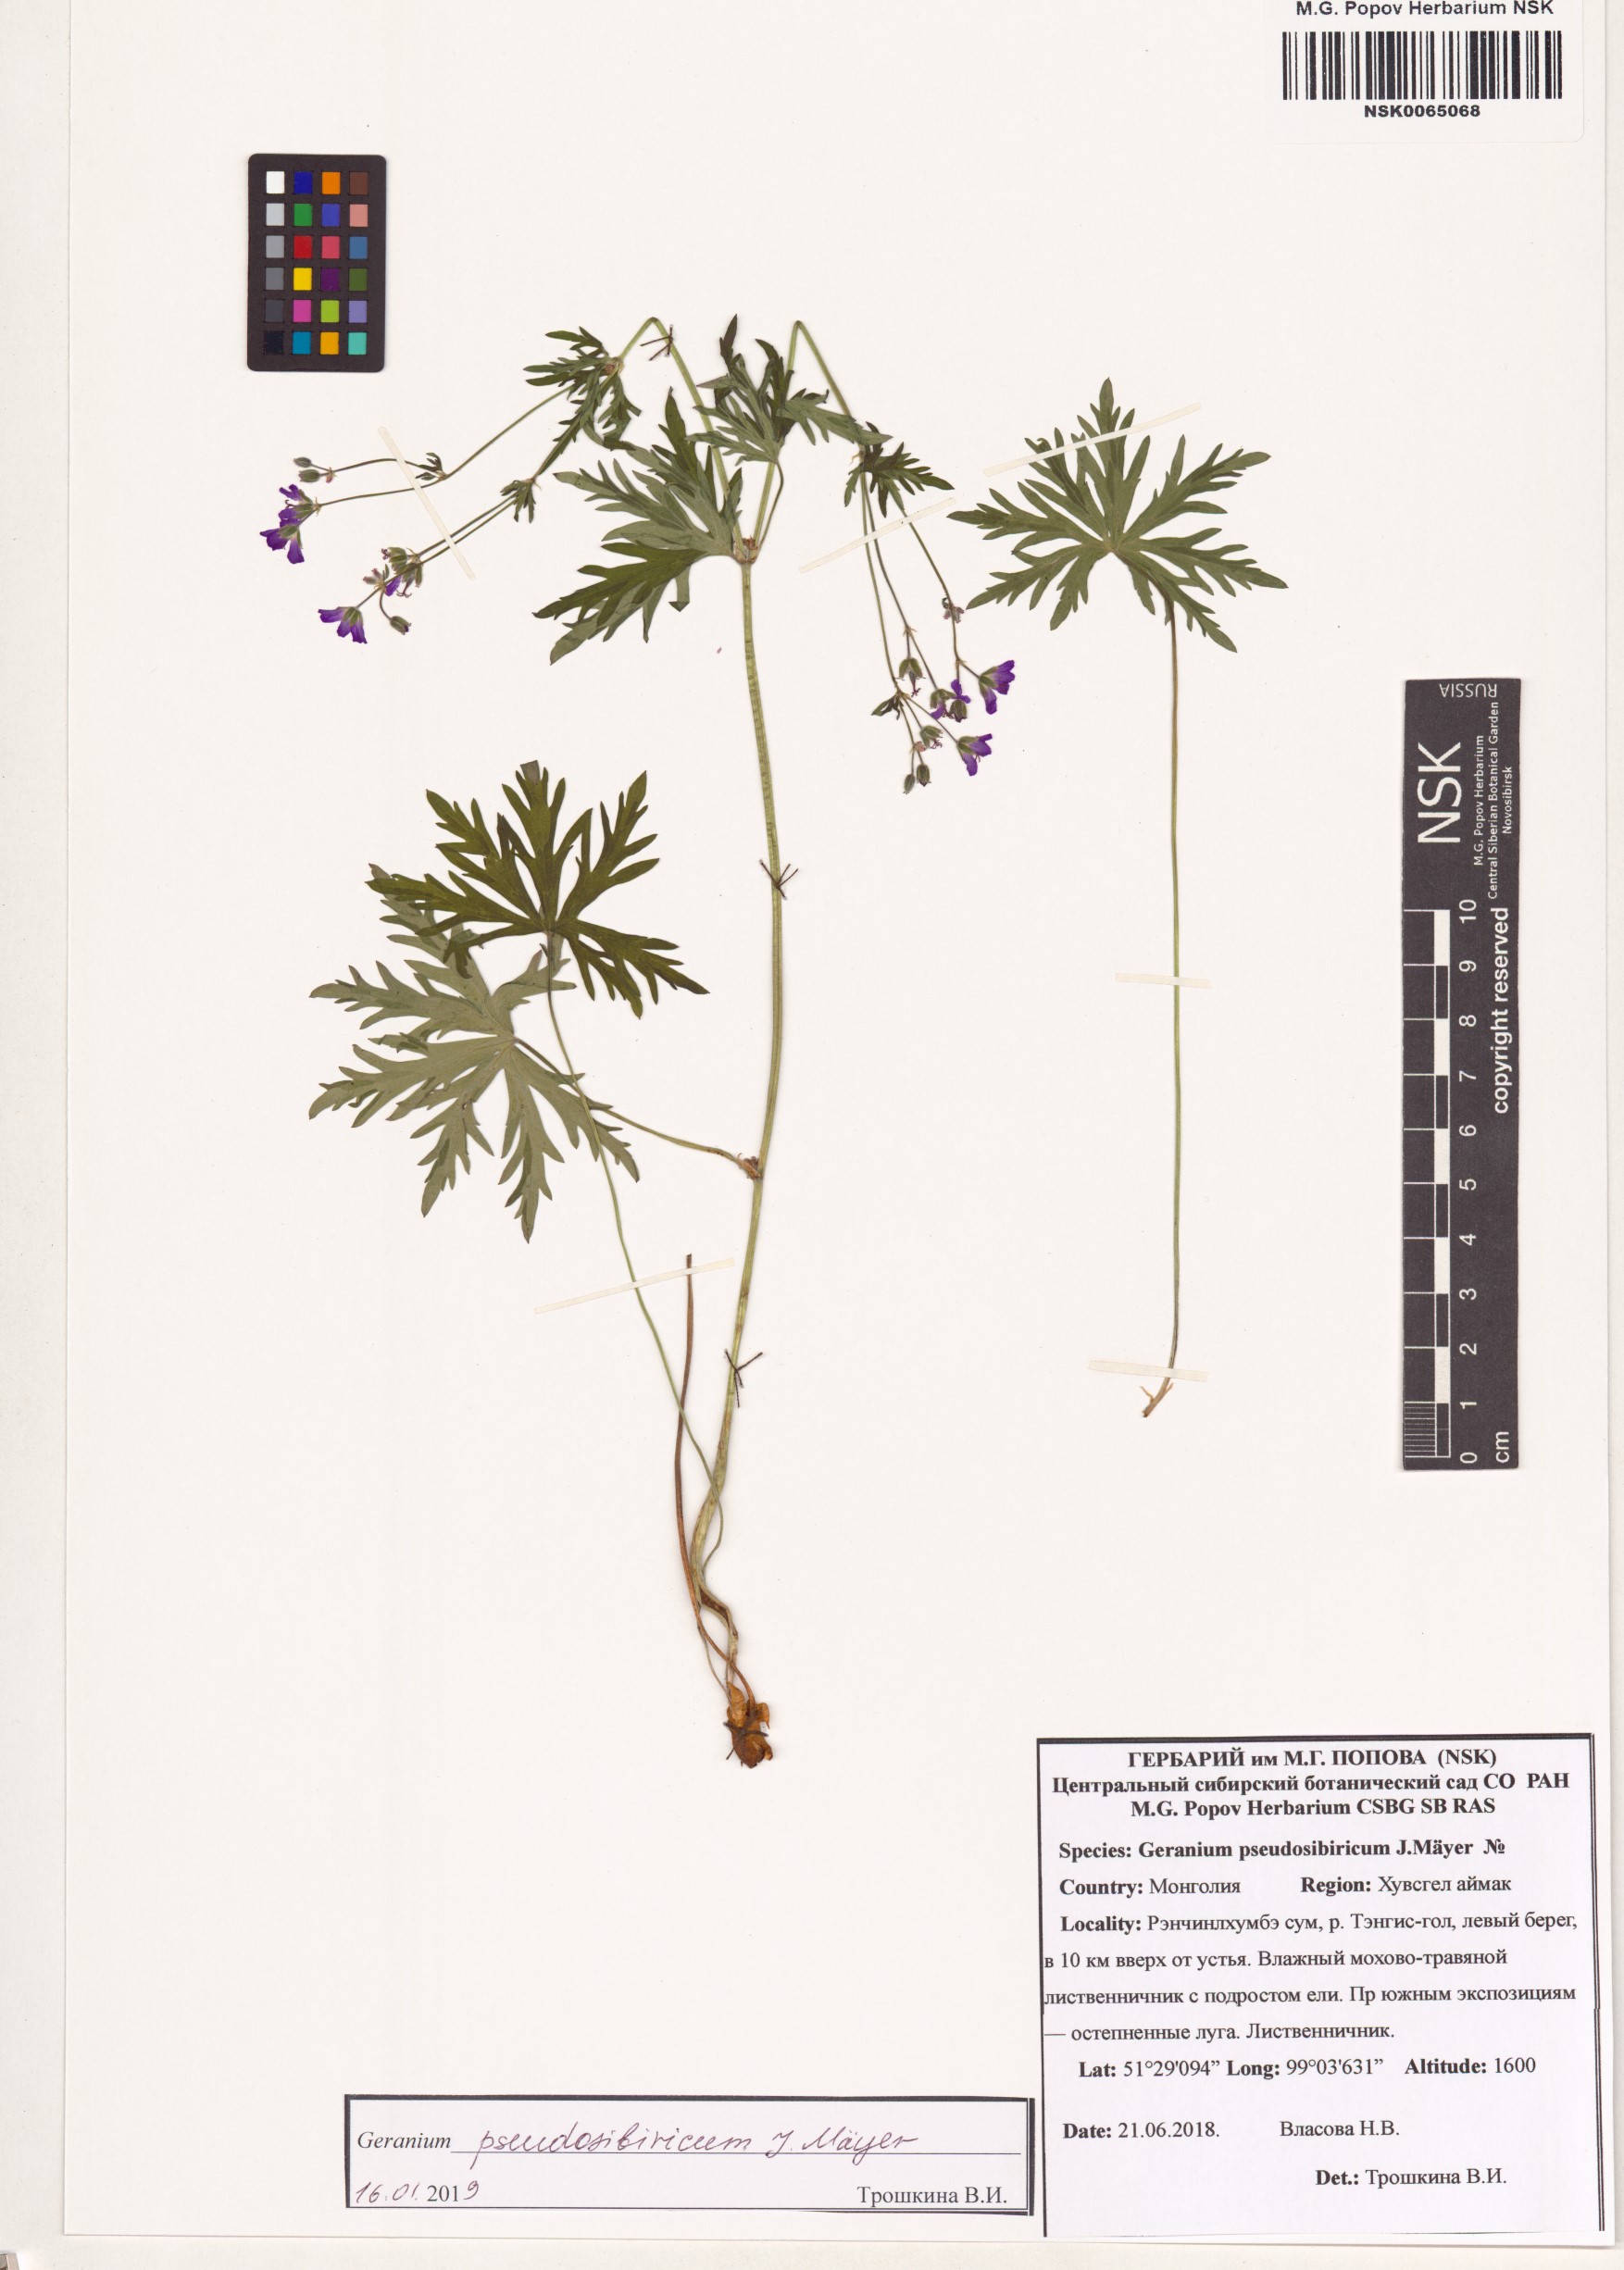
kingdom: Plantae
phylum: Tracheophyta
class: Magnoliopsida
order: Geraniales
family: Geraniaceae
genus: Geranium
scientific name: Geranium pseudosibiricum
